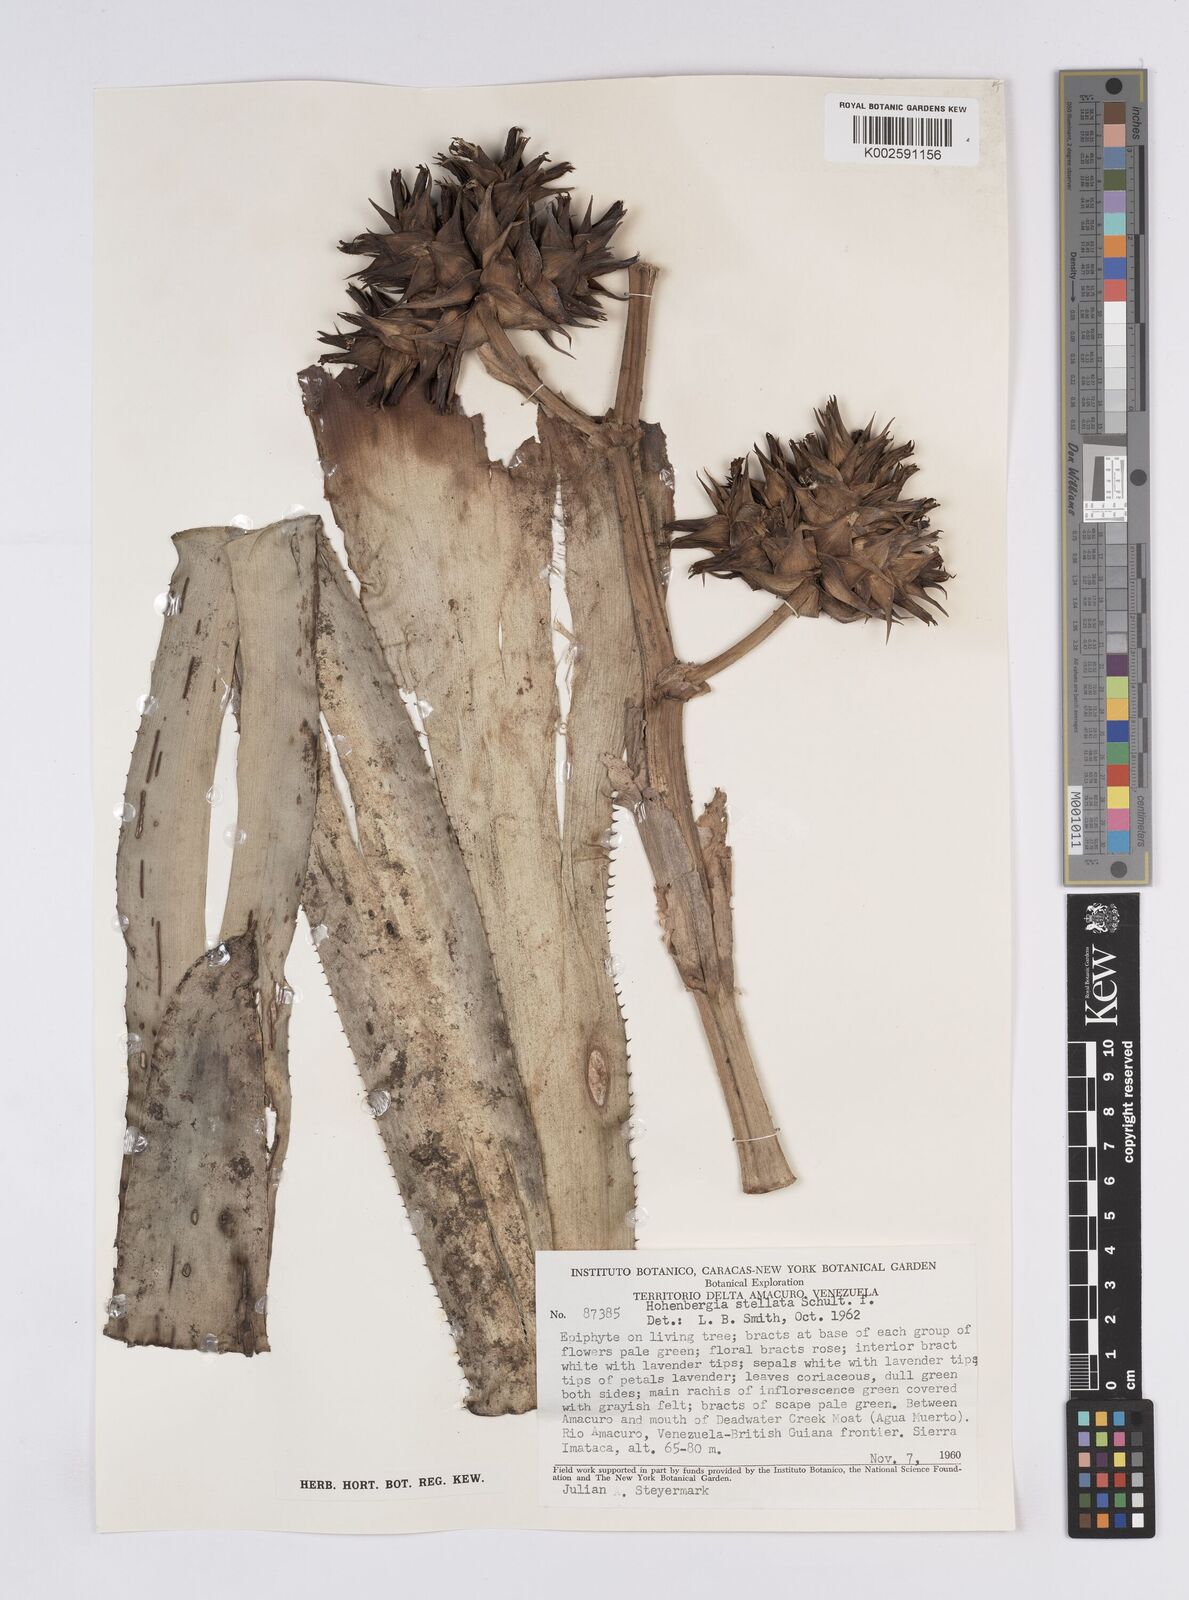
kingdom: Plantae
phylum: Tracheophyta
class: Liliopsida
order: Poales
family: Bromeliaceae
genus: Hohenbergia
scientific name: Hohenbergia stellata
